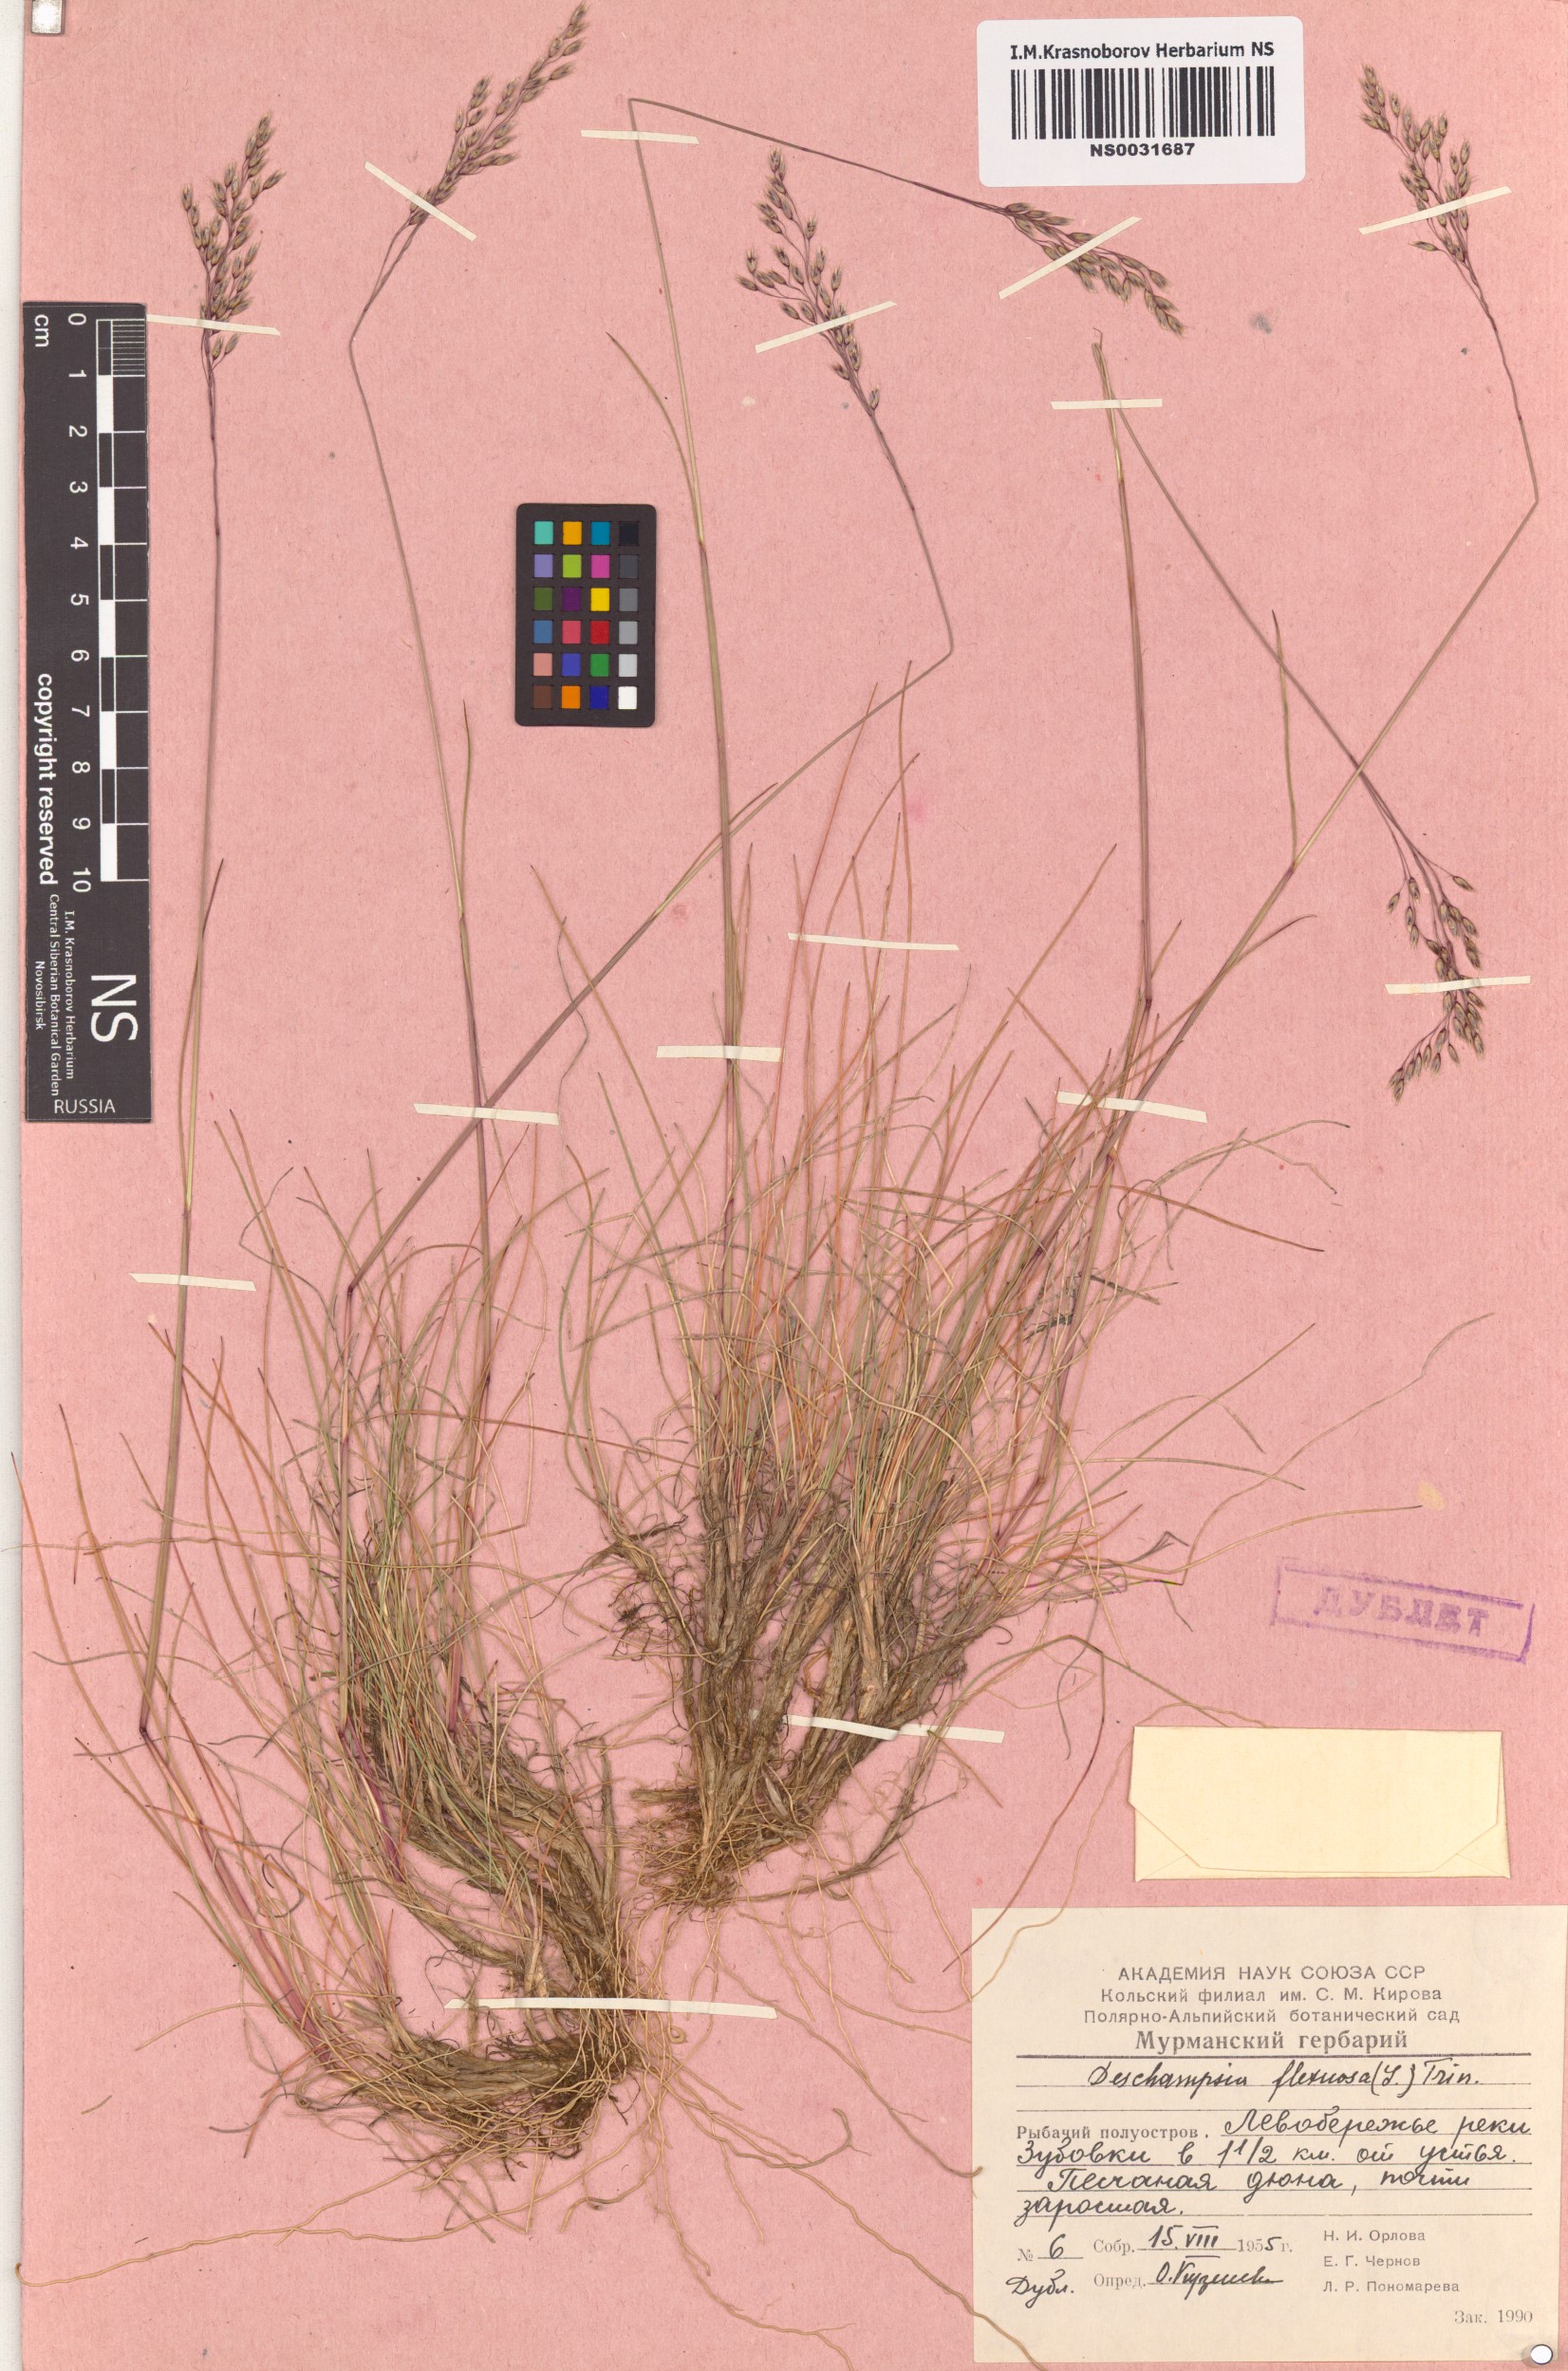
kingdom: Plantae
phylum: Tracheophyta
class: Liliopsida
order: Poales
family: Poaceae
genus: Avenella
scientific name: Avenella flexuosa
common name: Wavy hairgrass
